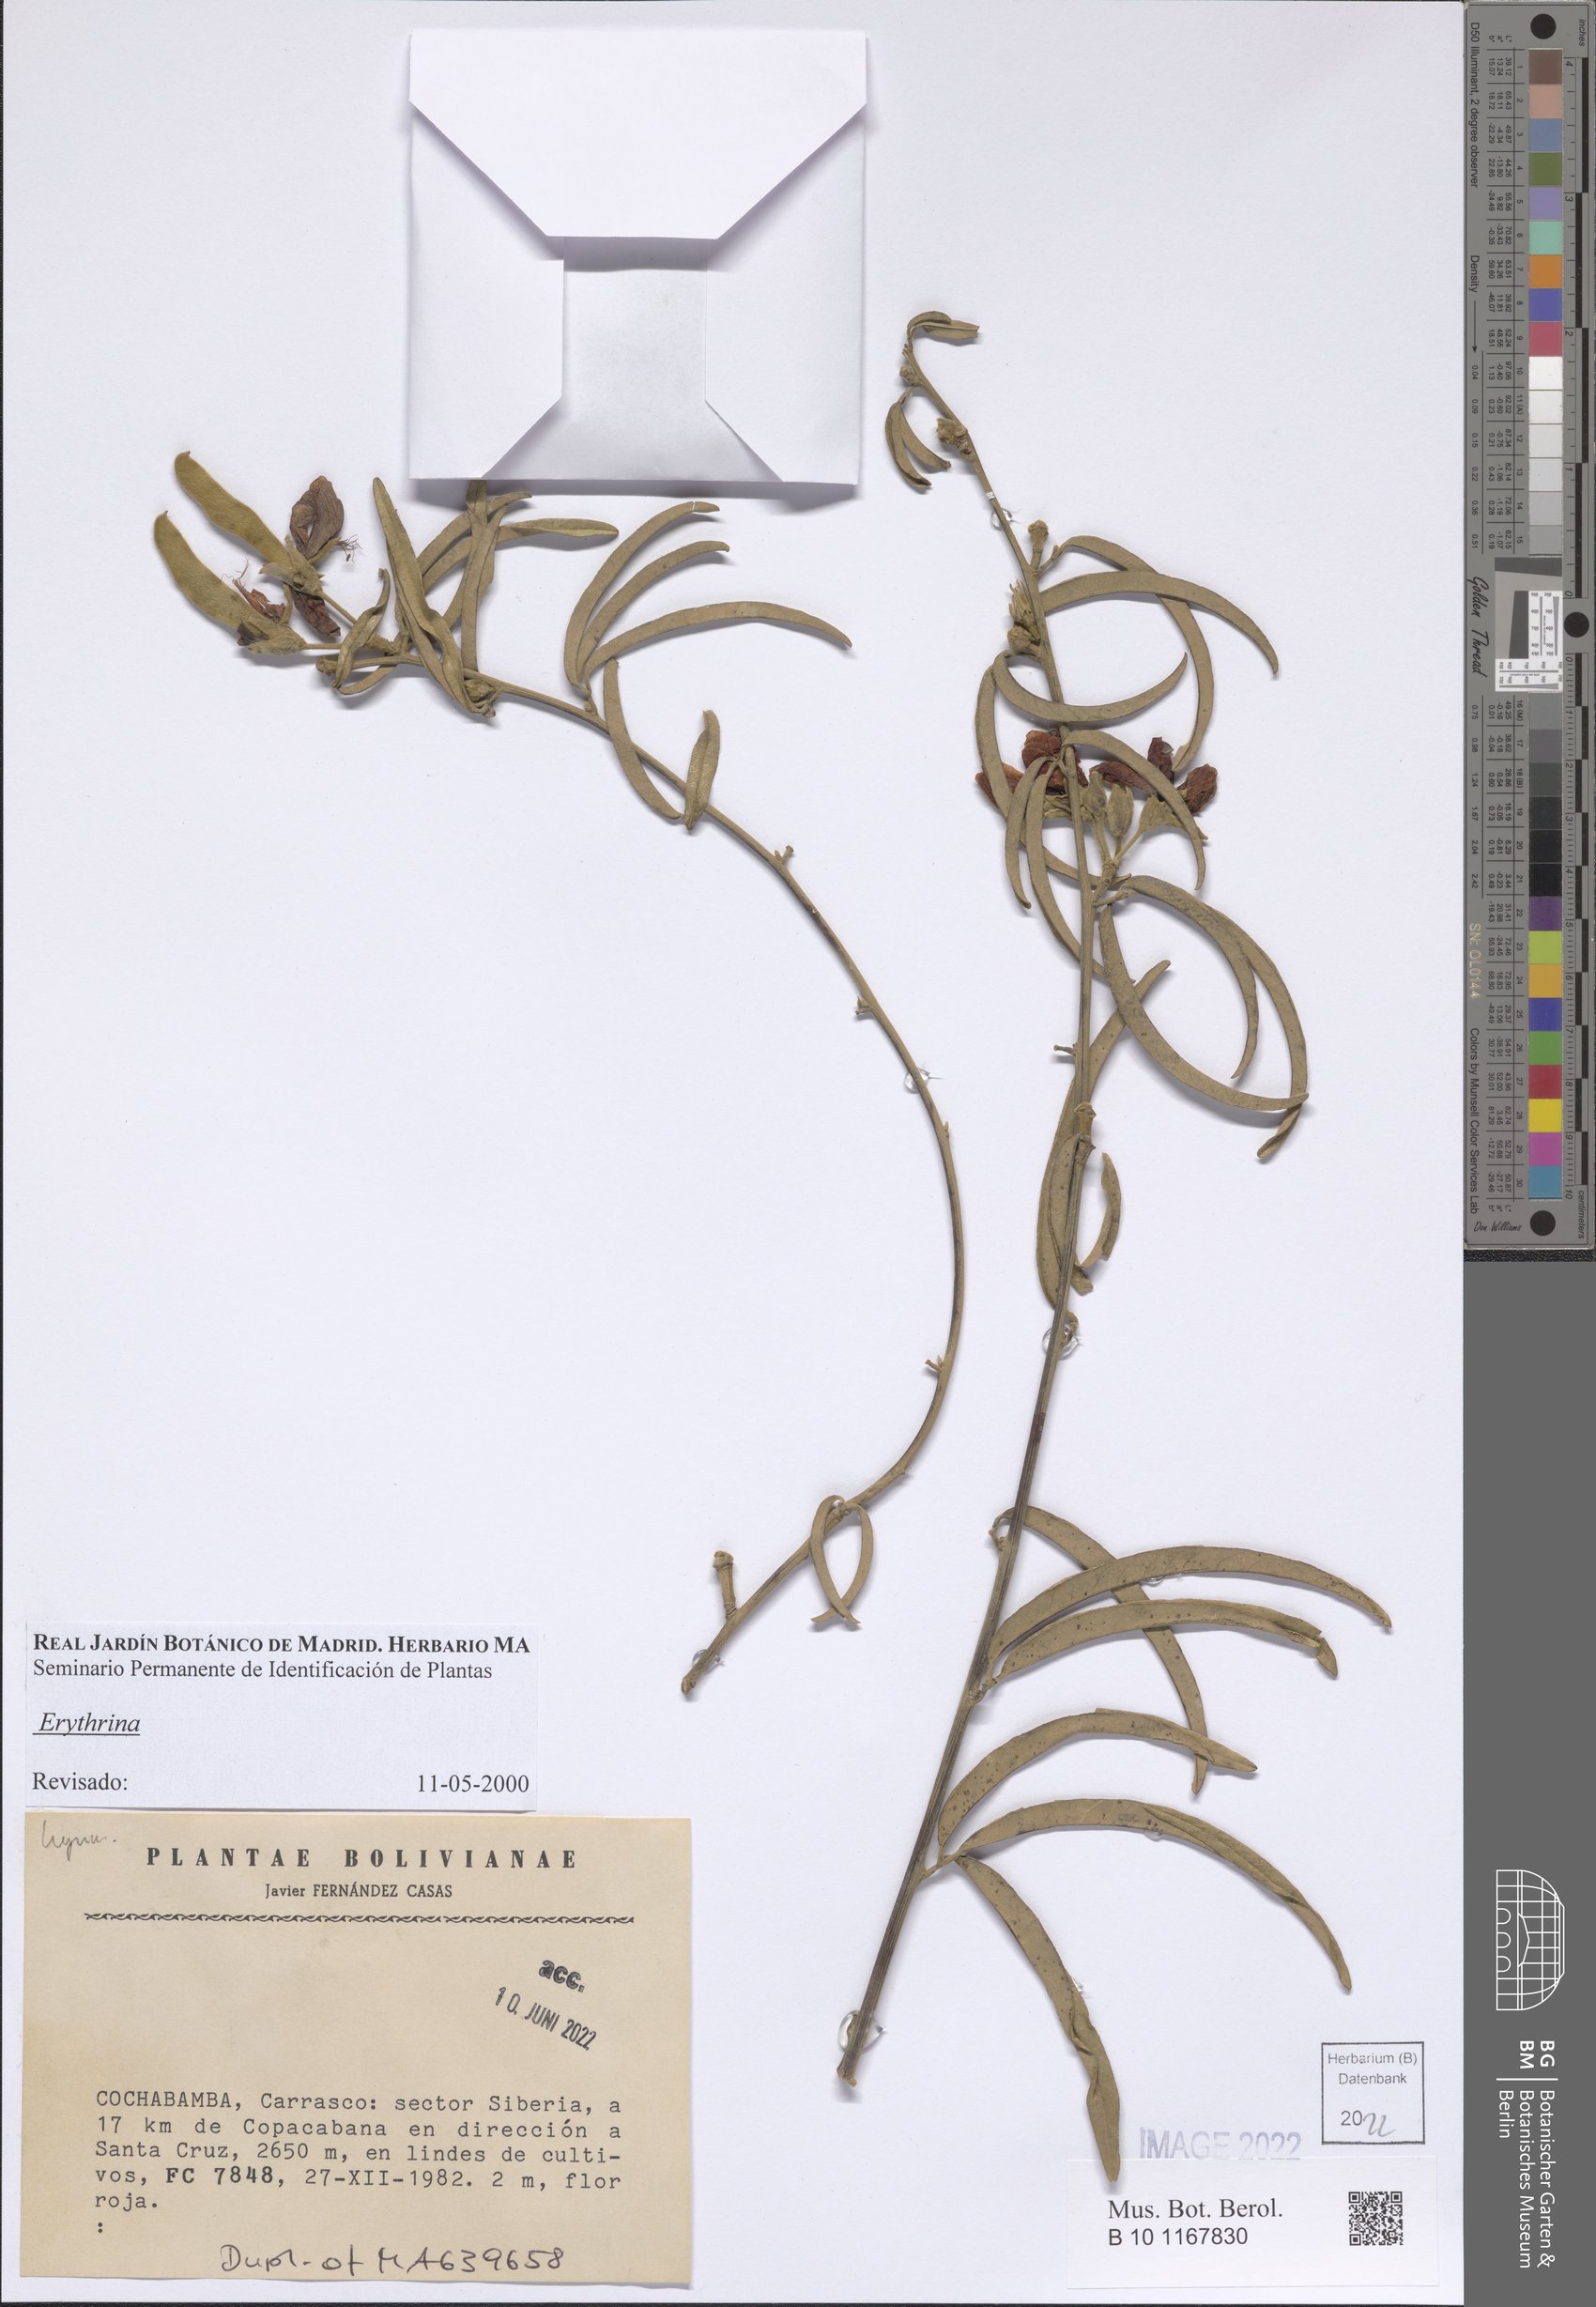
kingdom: Plantae
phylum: Tracheophyta
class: Magnoliopsida
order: Fabales
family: Fabaceae
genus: Erythrina
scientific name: Erythrina
